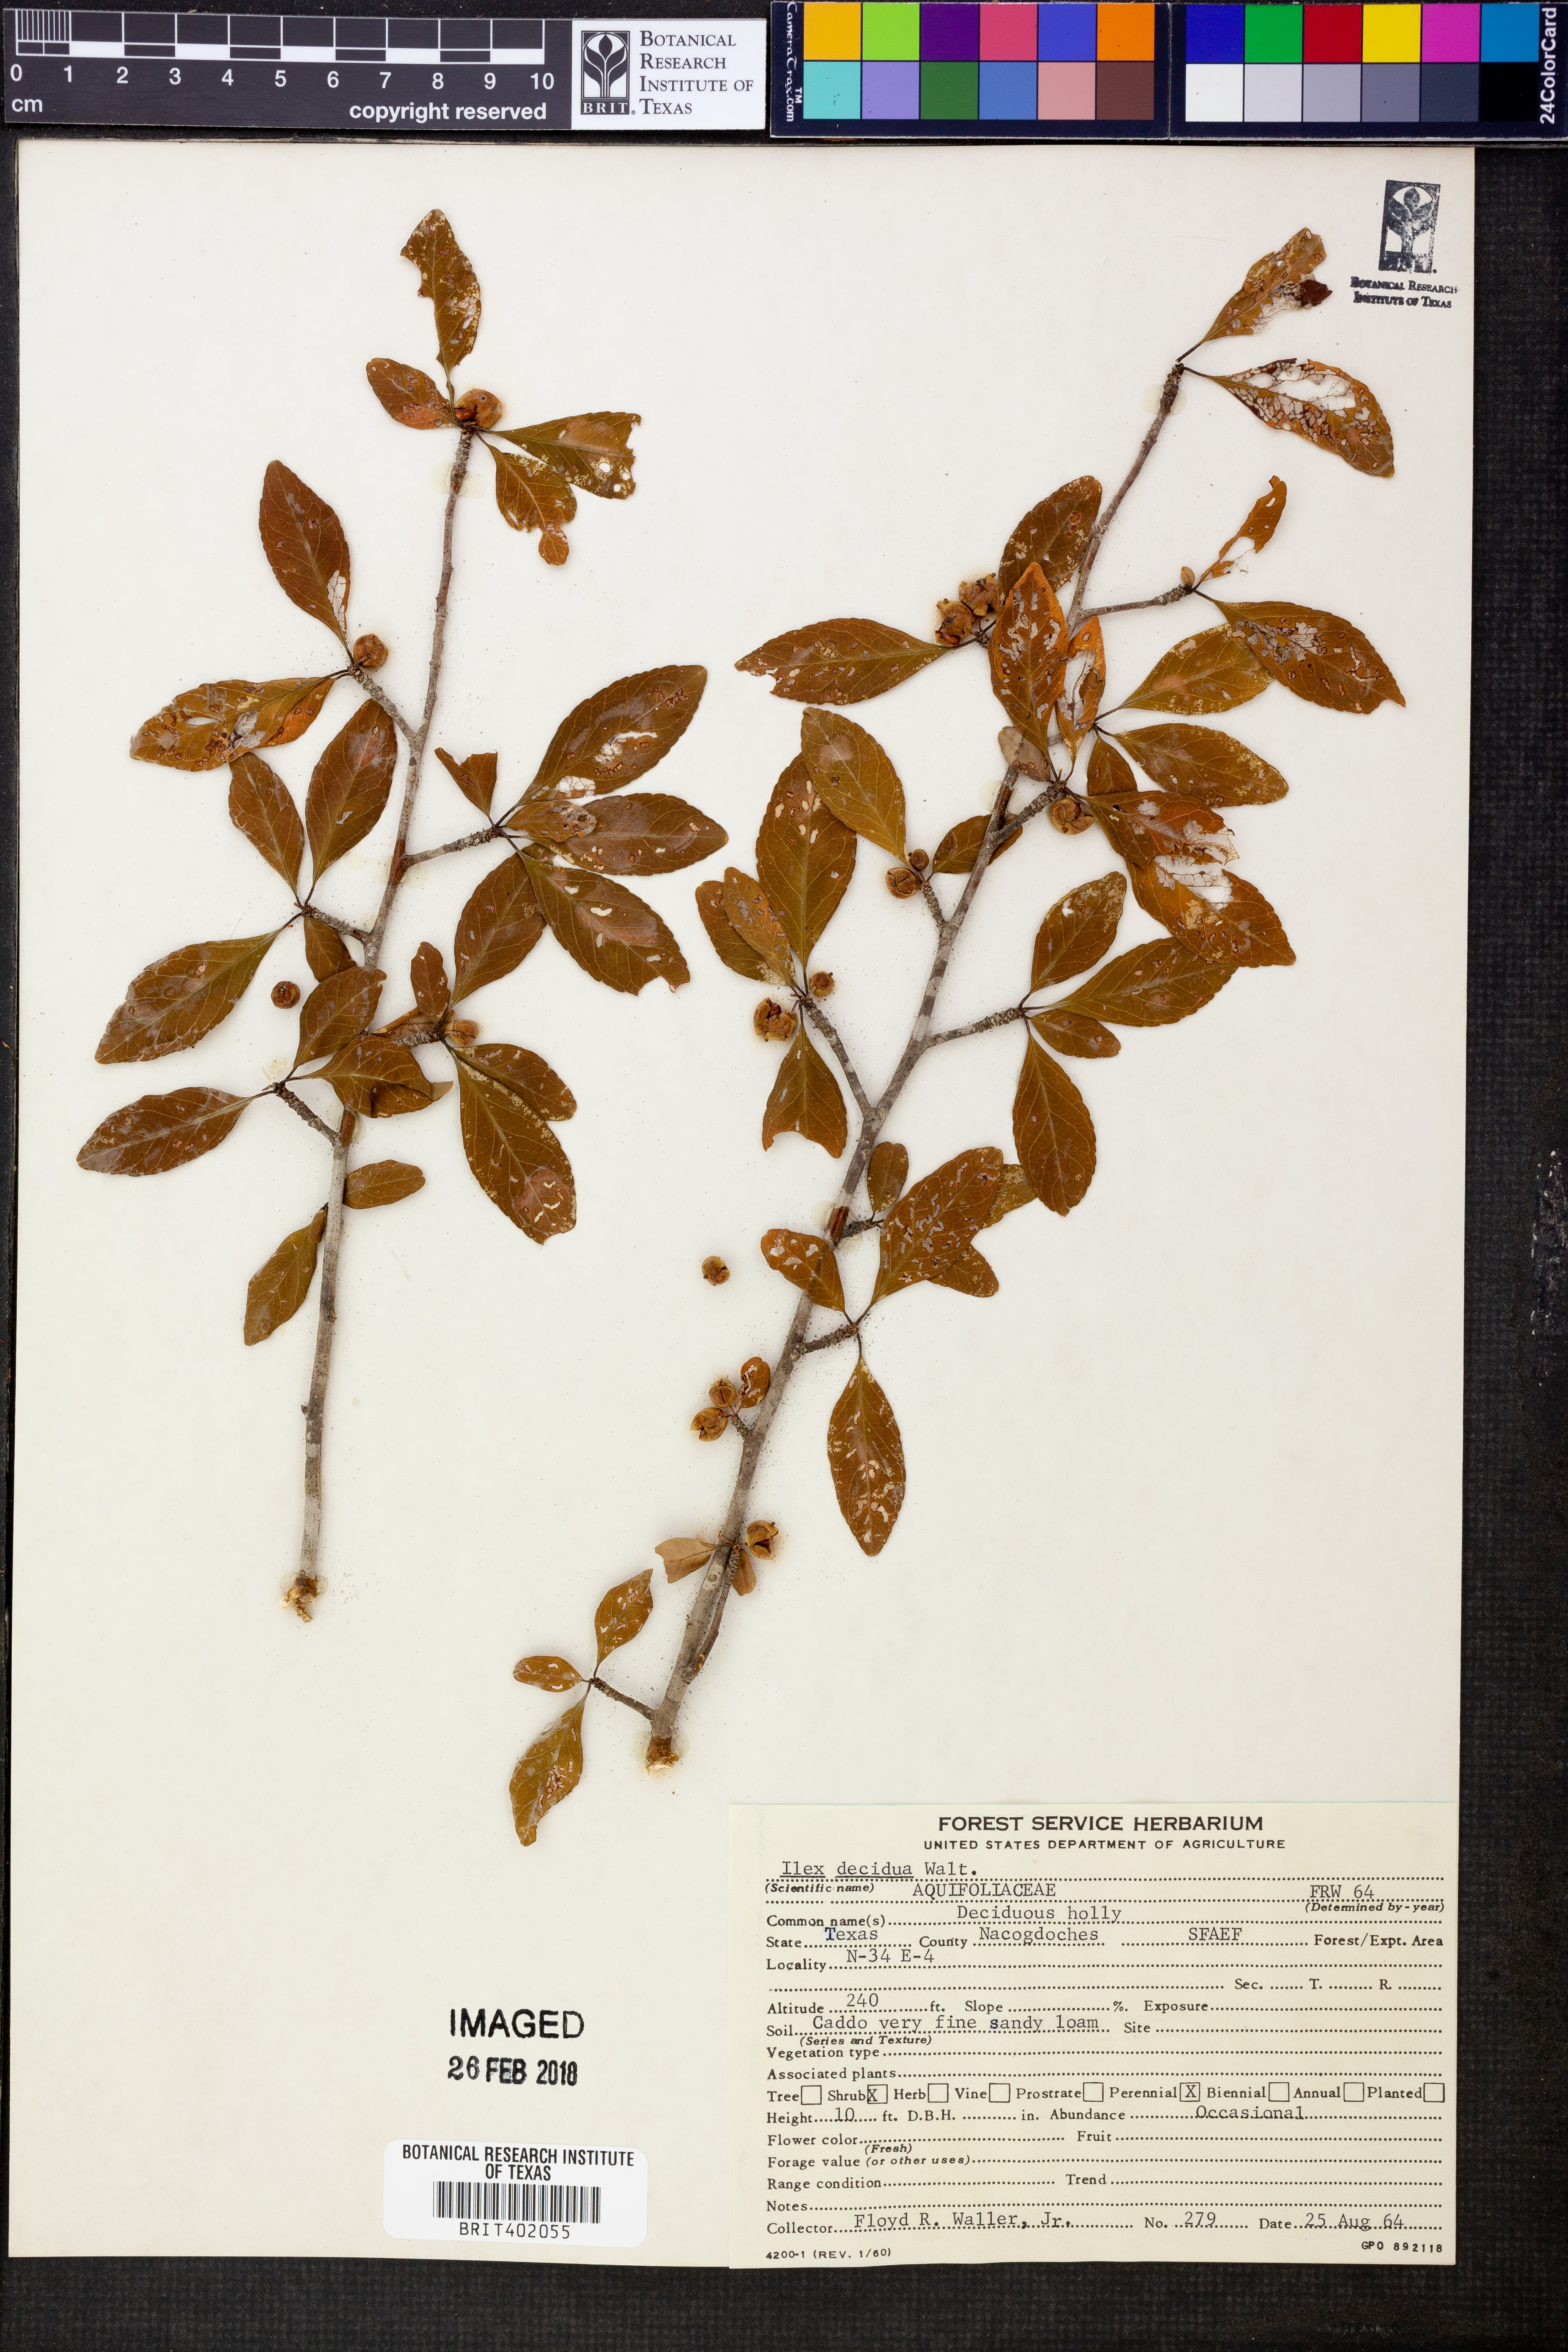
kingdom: Plantae
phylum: Tracheophyta
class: Magnoliopsida
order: Aquifoliales
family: Aquifoliaceae
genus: Ilex
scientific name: Ilex decidua
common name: Possum-haw
